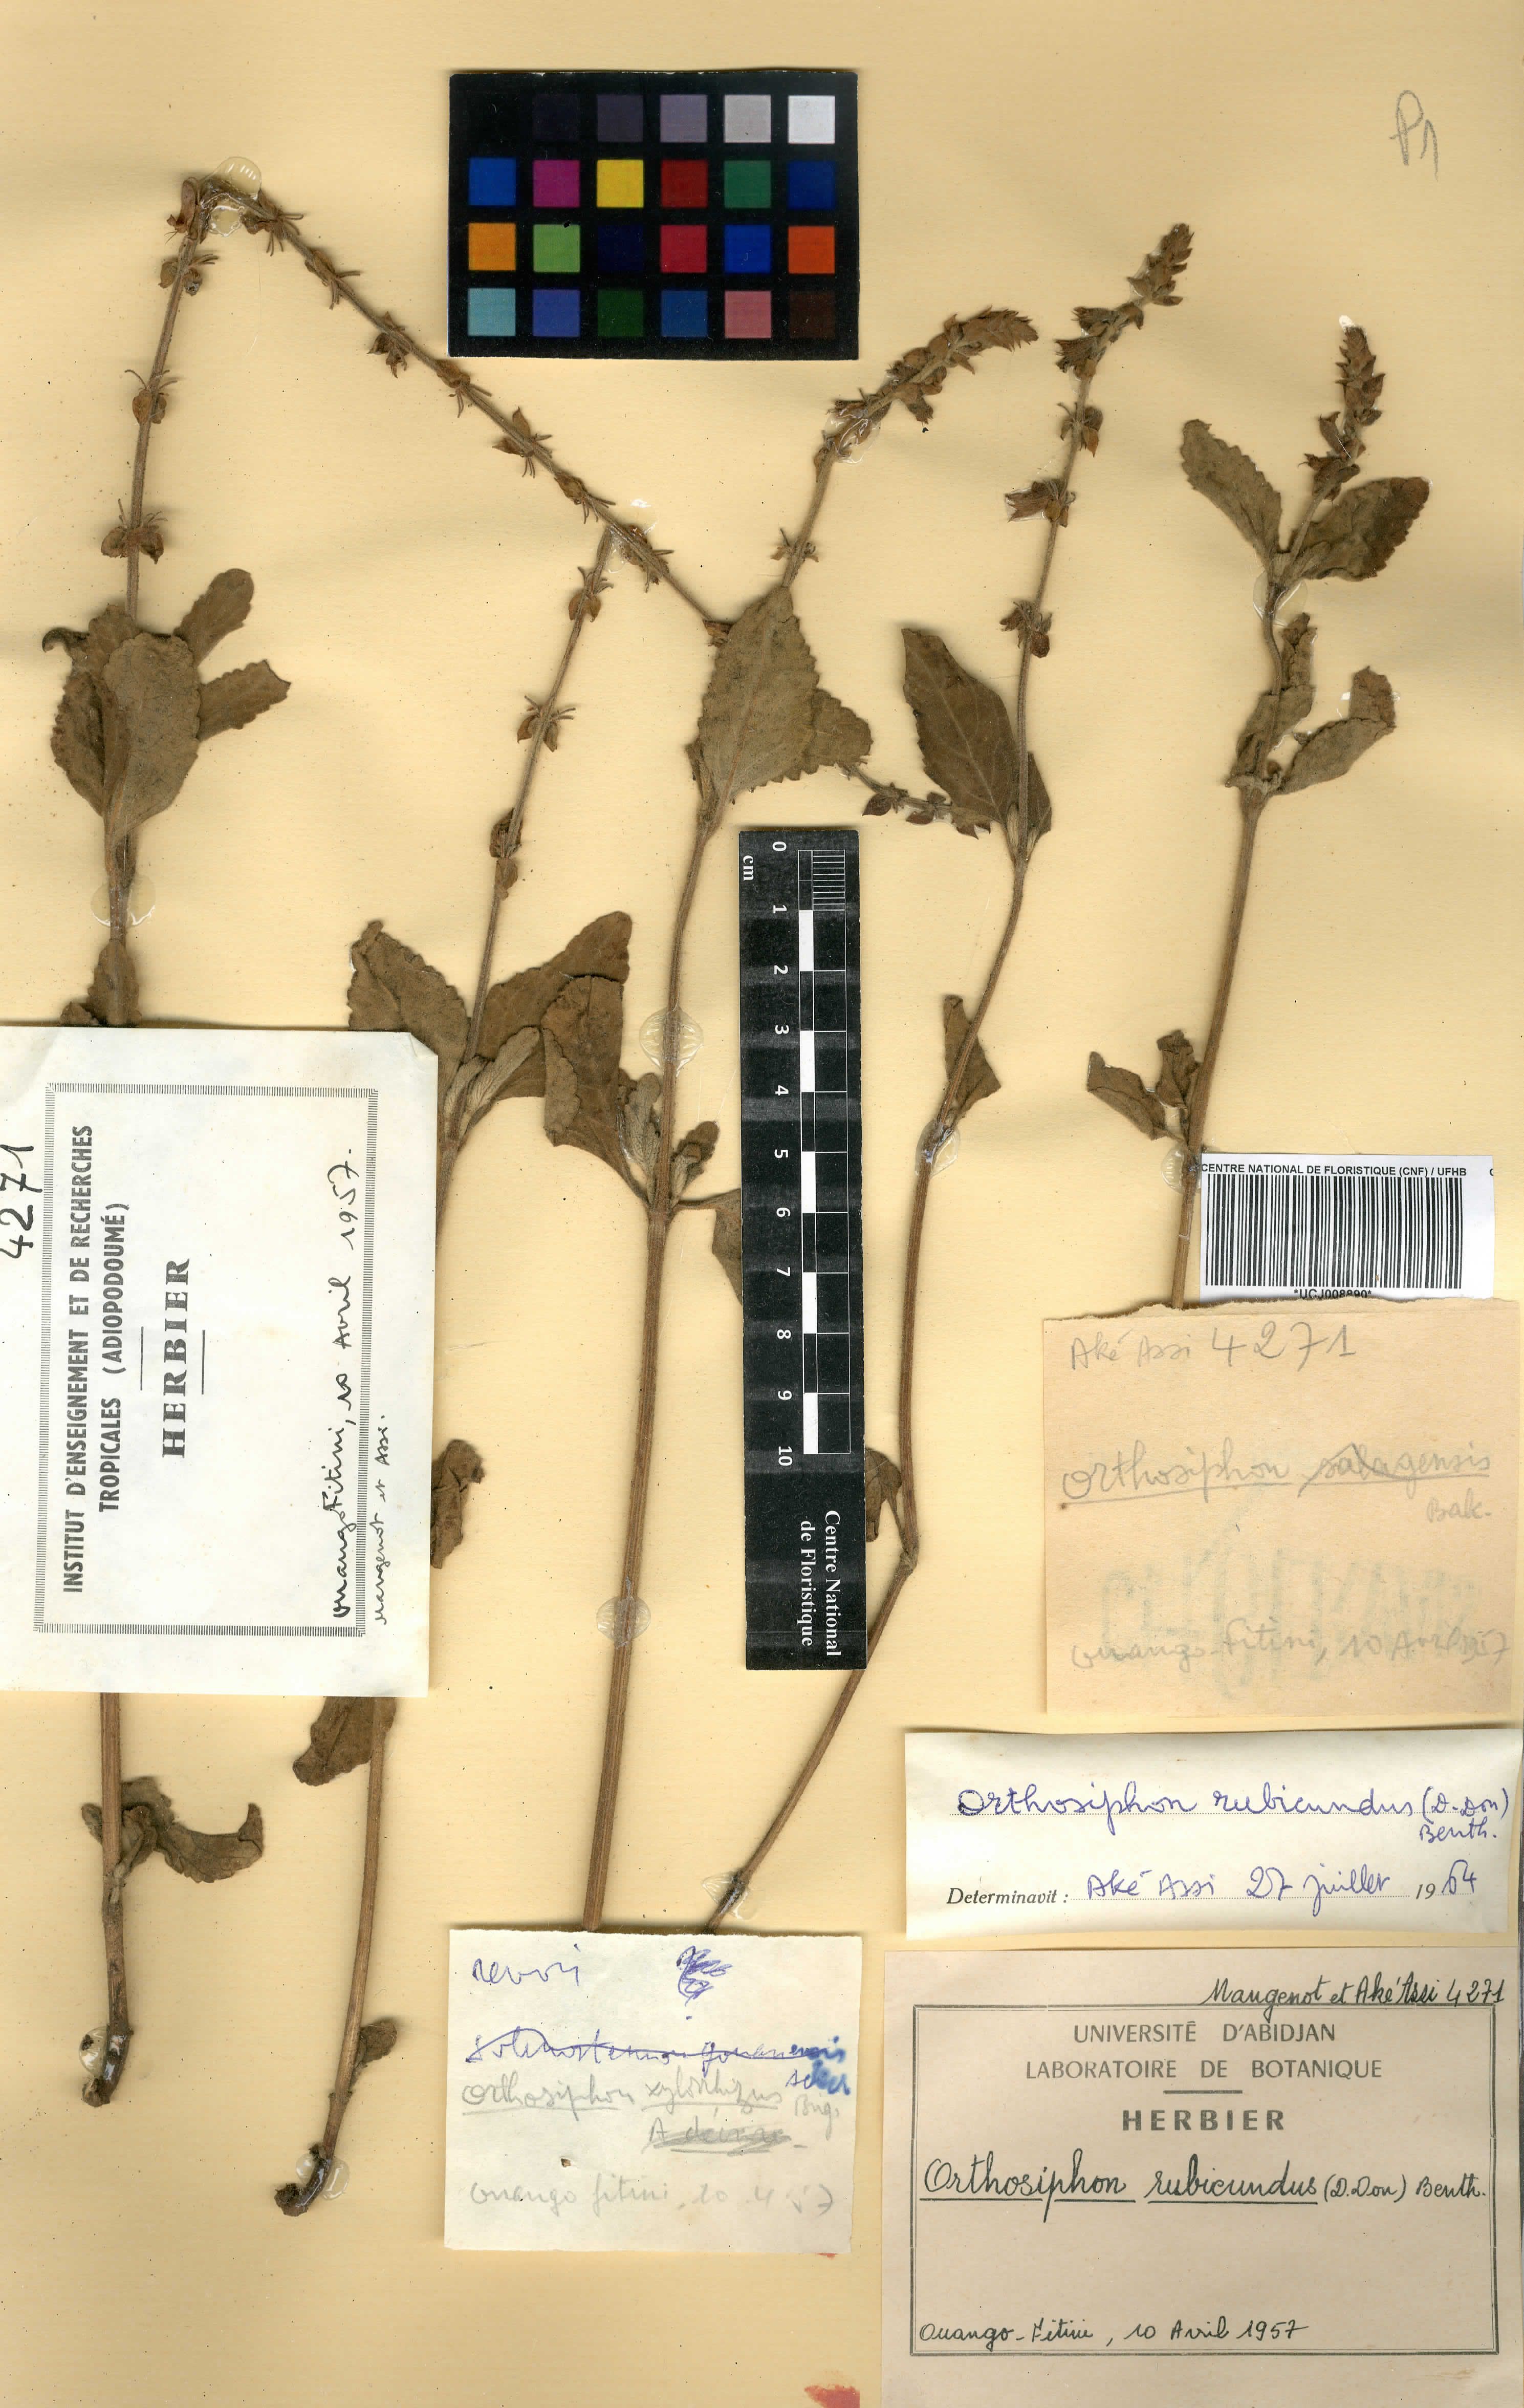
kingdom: Plantae
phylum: Tracheophyta
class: Magnoliopsida
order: Lamiales
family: Lamiaceae
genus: Orthosiphon
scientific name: Orthosiphon rubicundus
